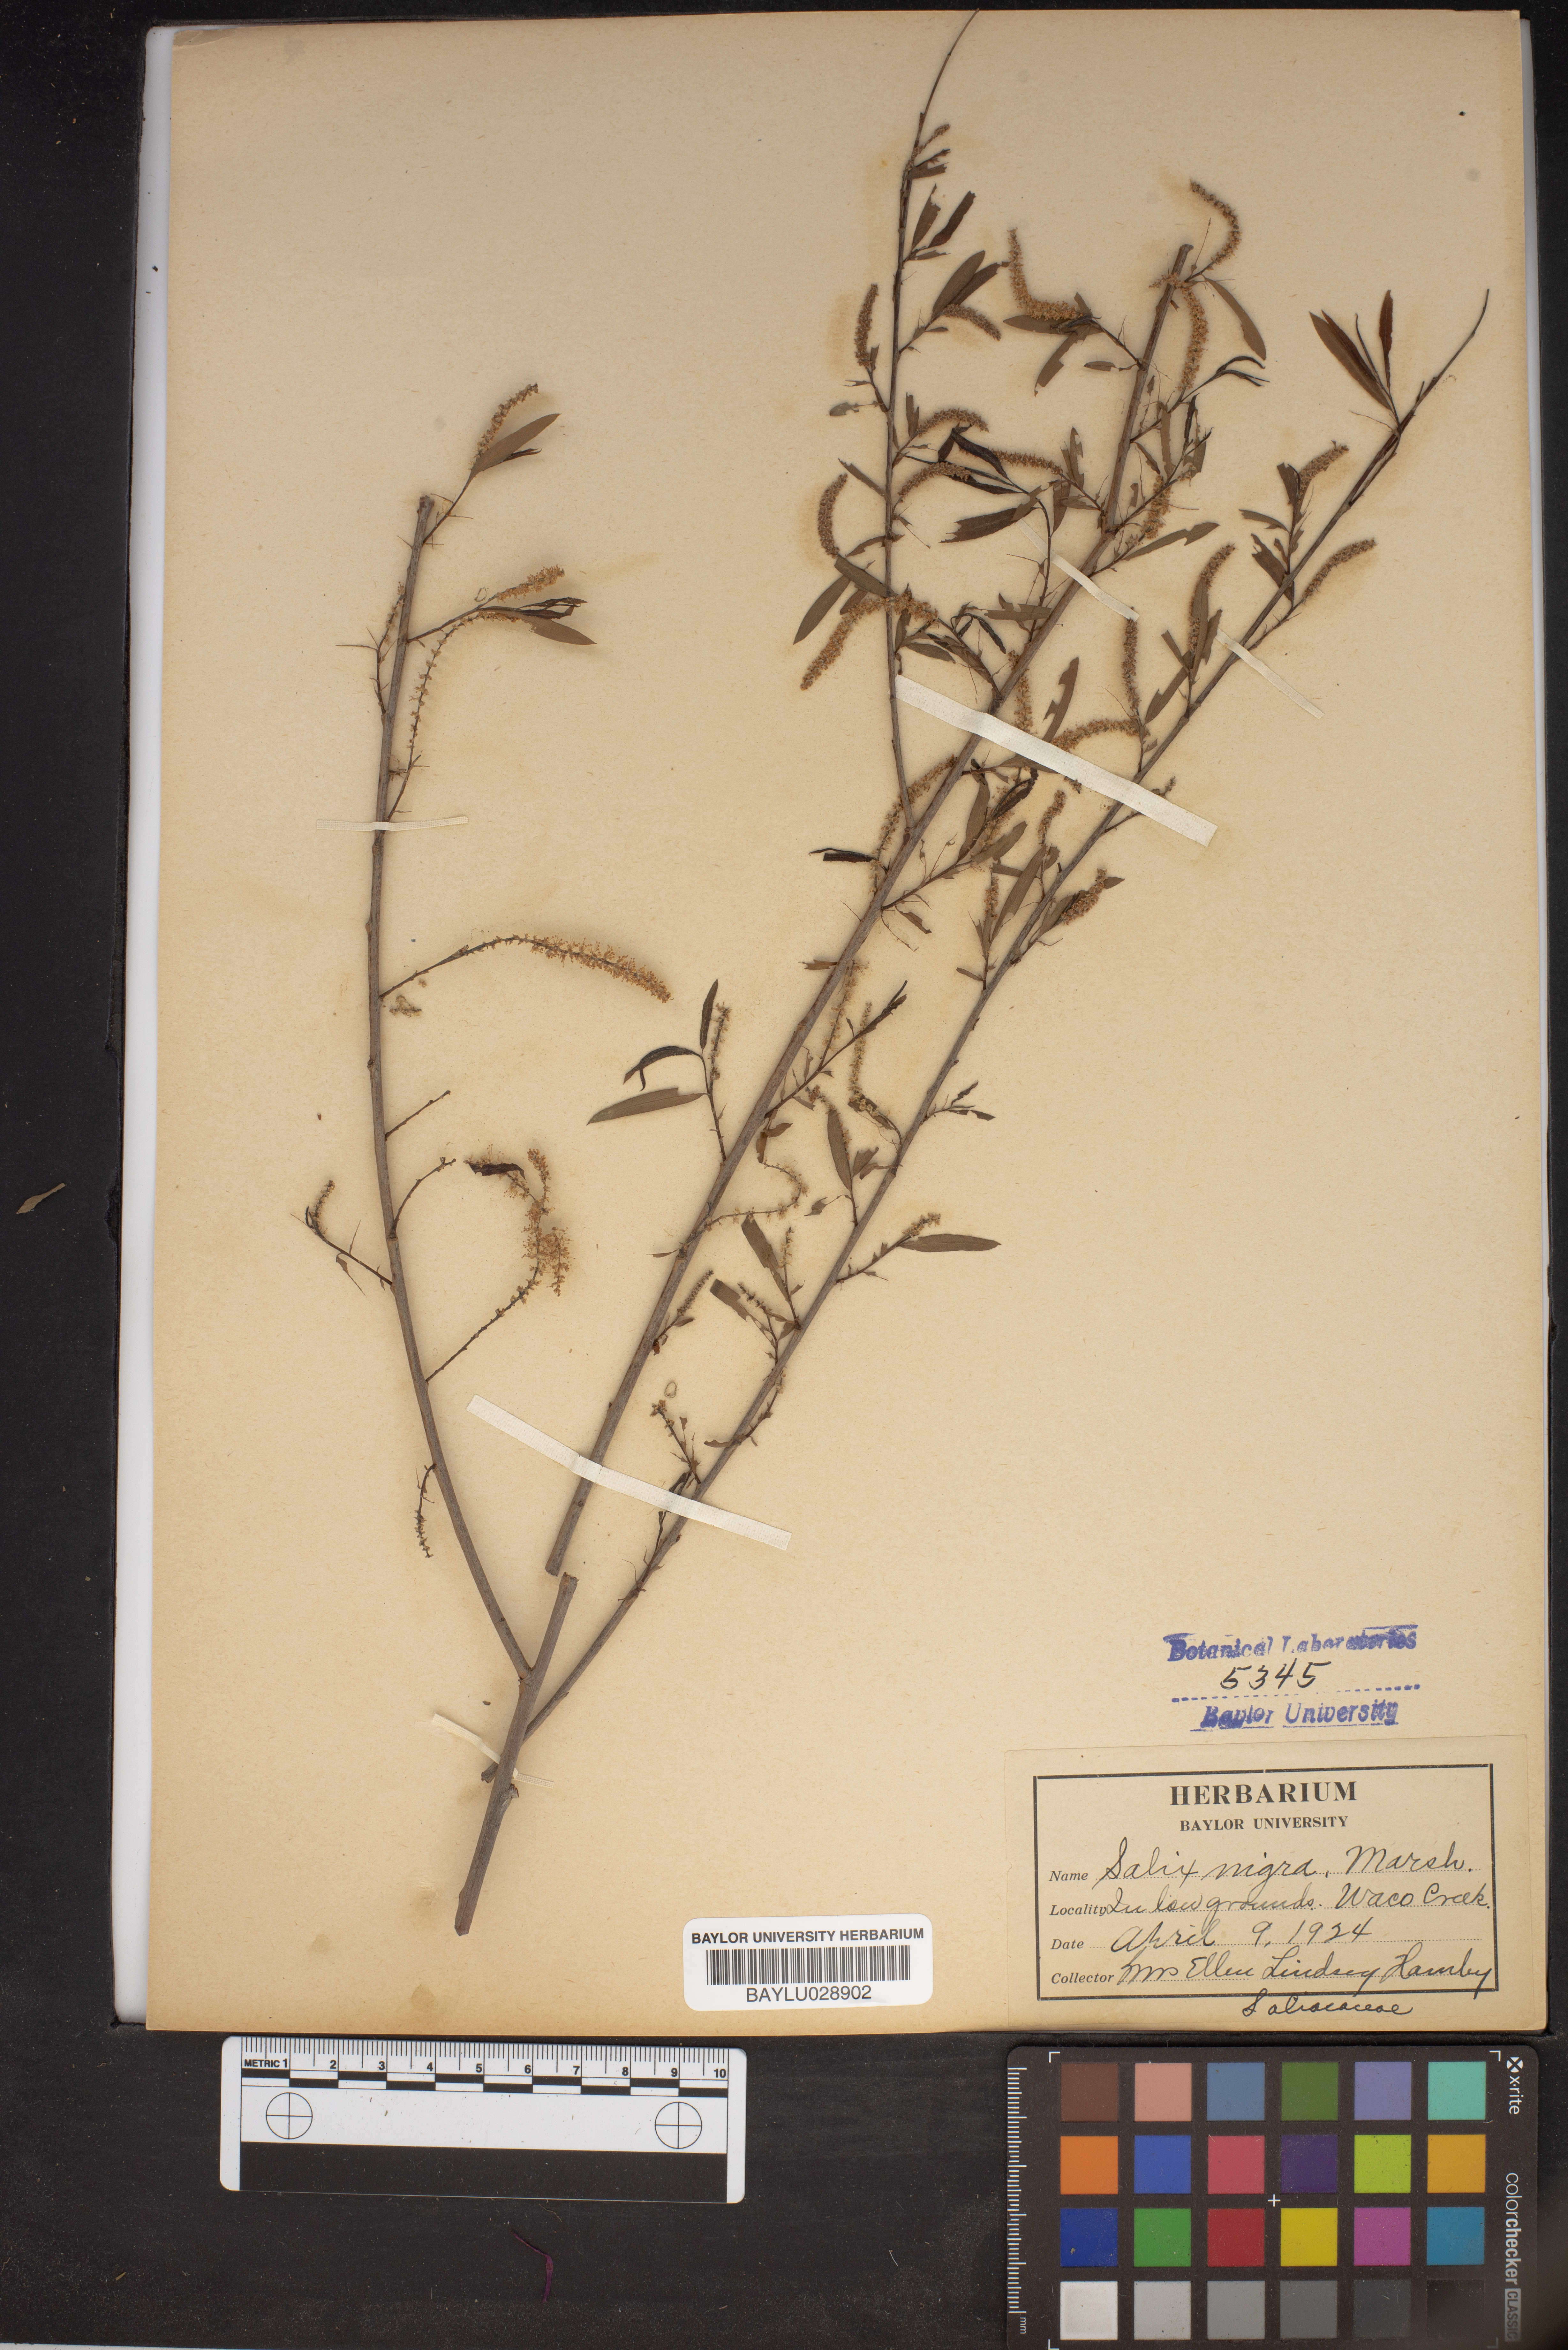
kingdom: Plantae
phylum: Tracheophyta
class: Magnoliopsida
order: Malpighiales
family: Salicaceae
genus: Salix
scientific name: Salix nigra
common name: Black willow
